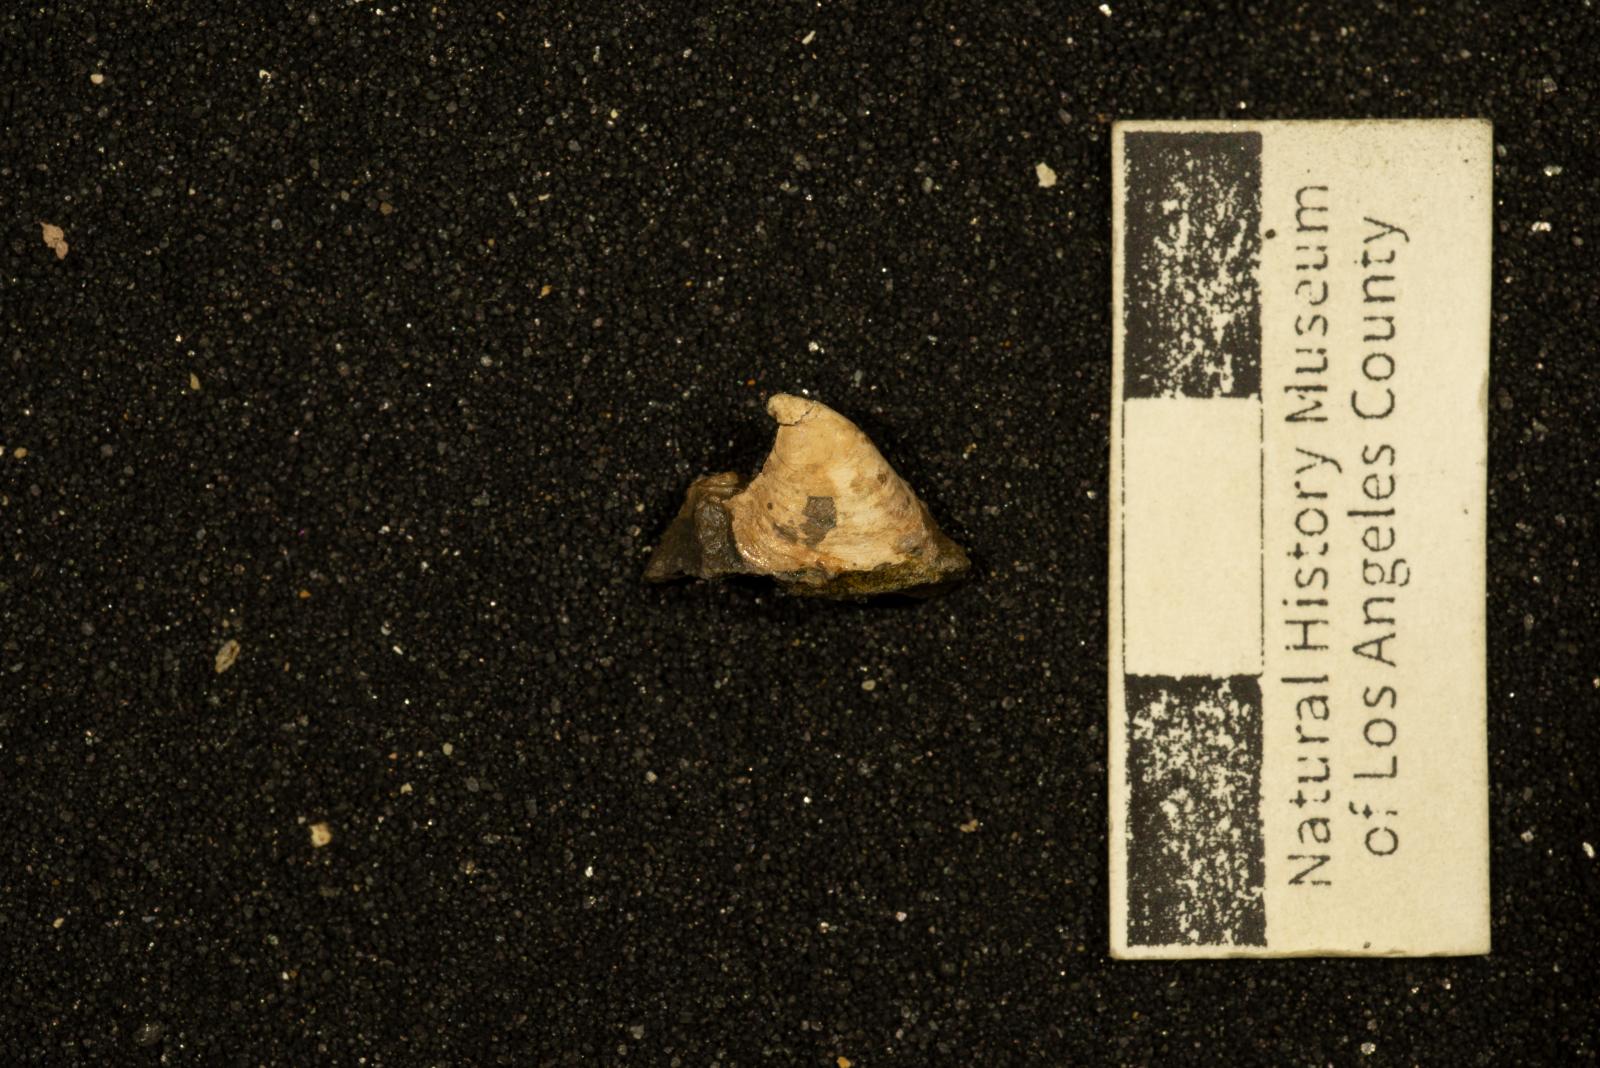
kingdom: Animalia
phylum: Mollusca
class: Gastropoda
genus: Vasculum
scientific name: Vasculum obliquum
